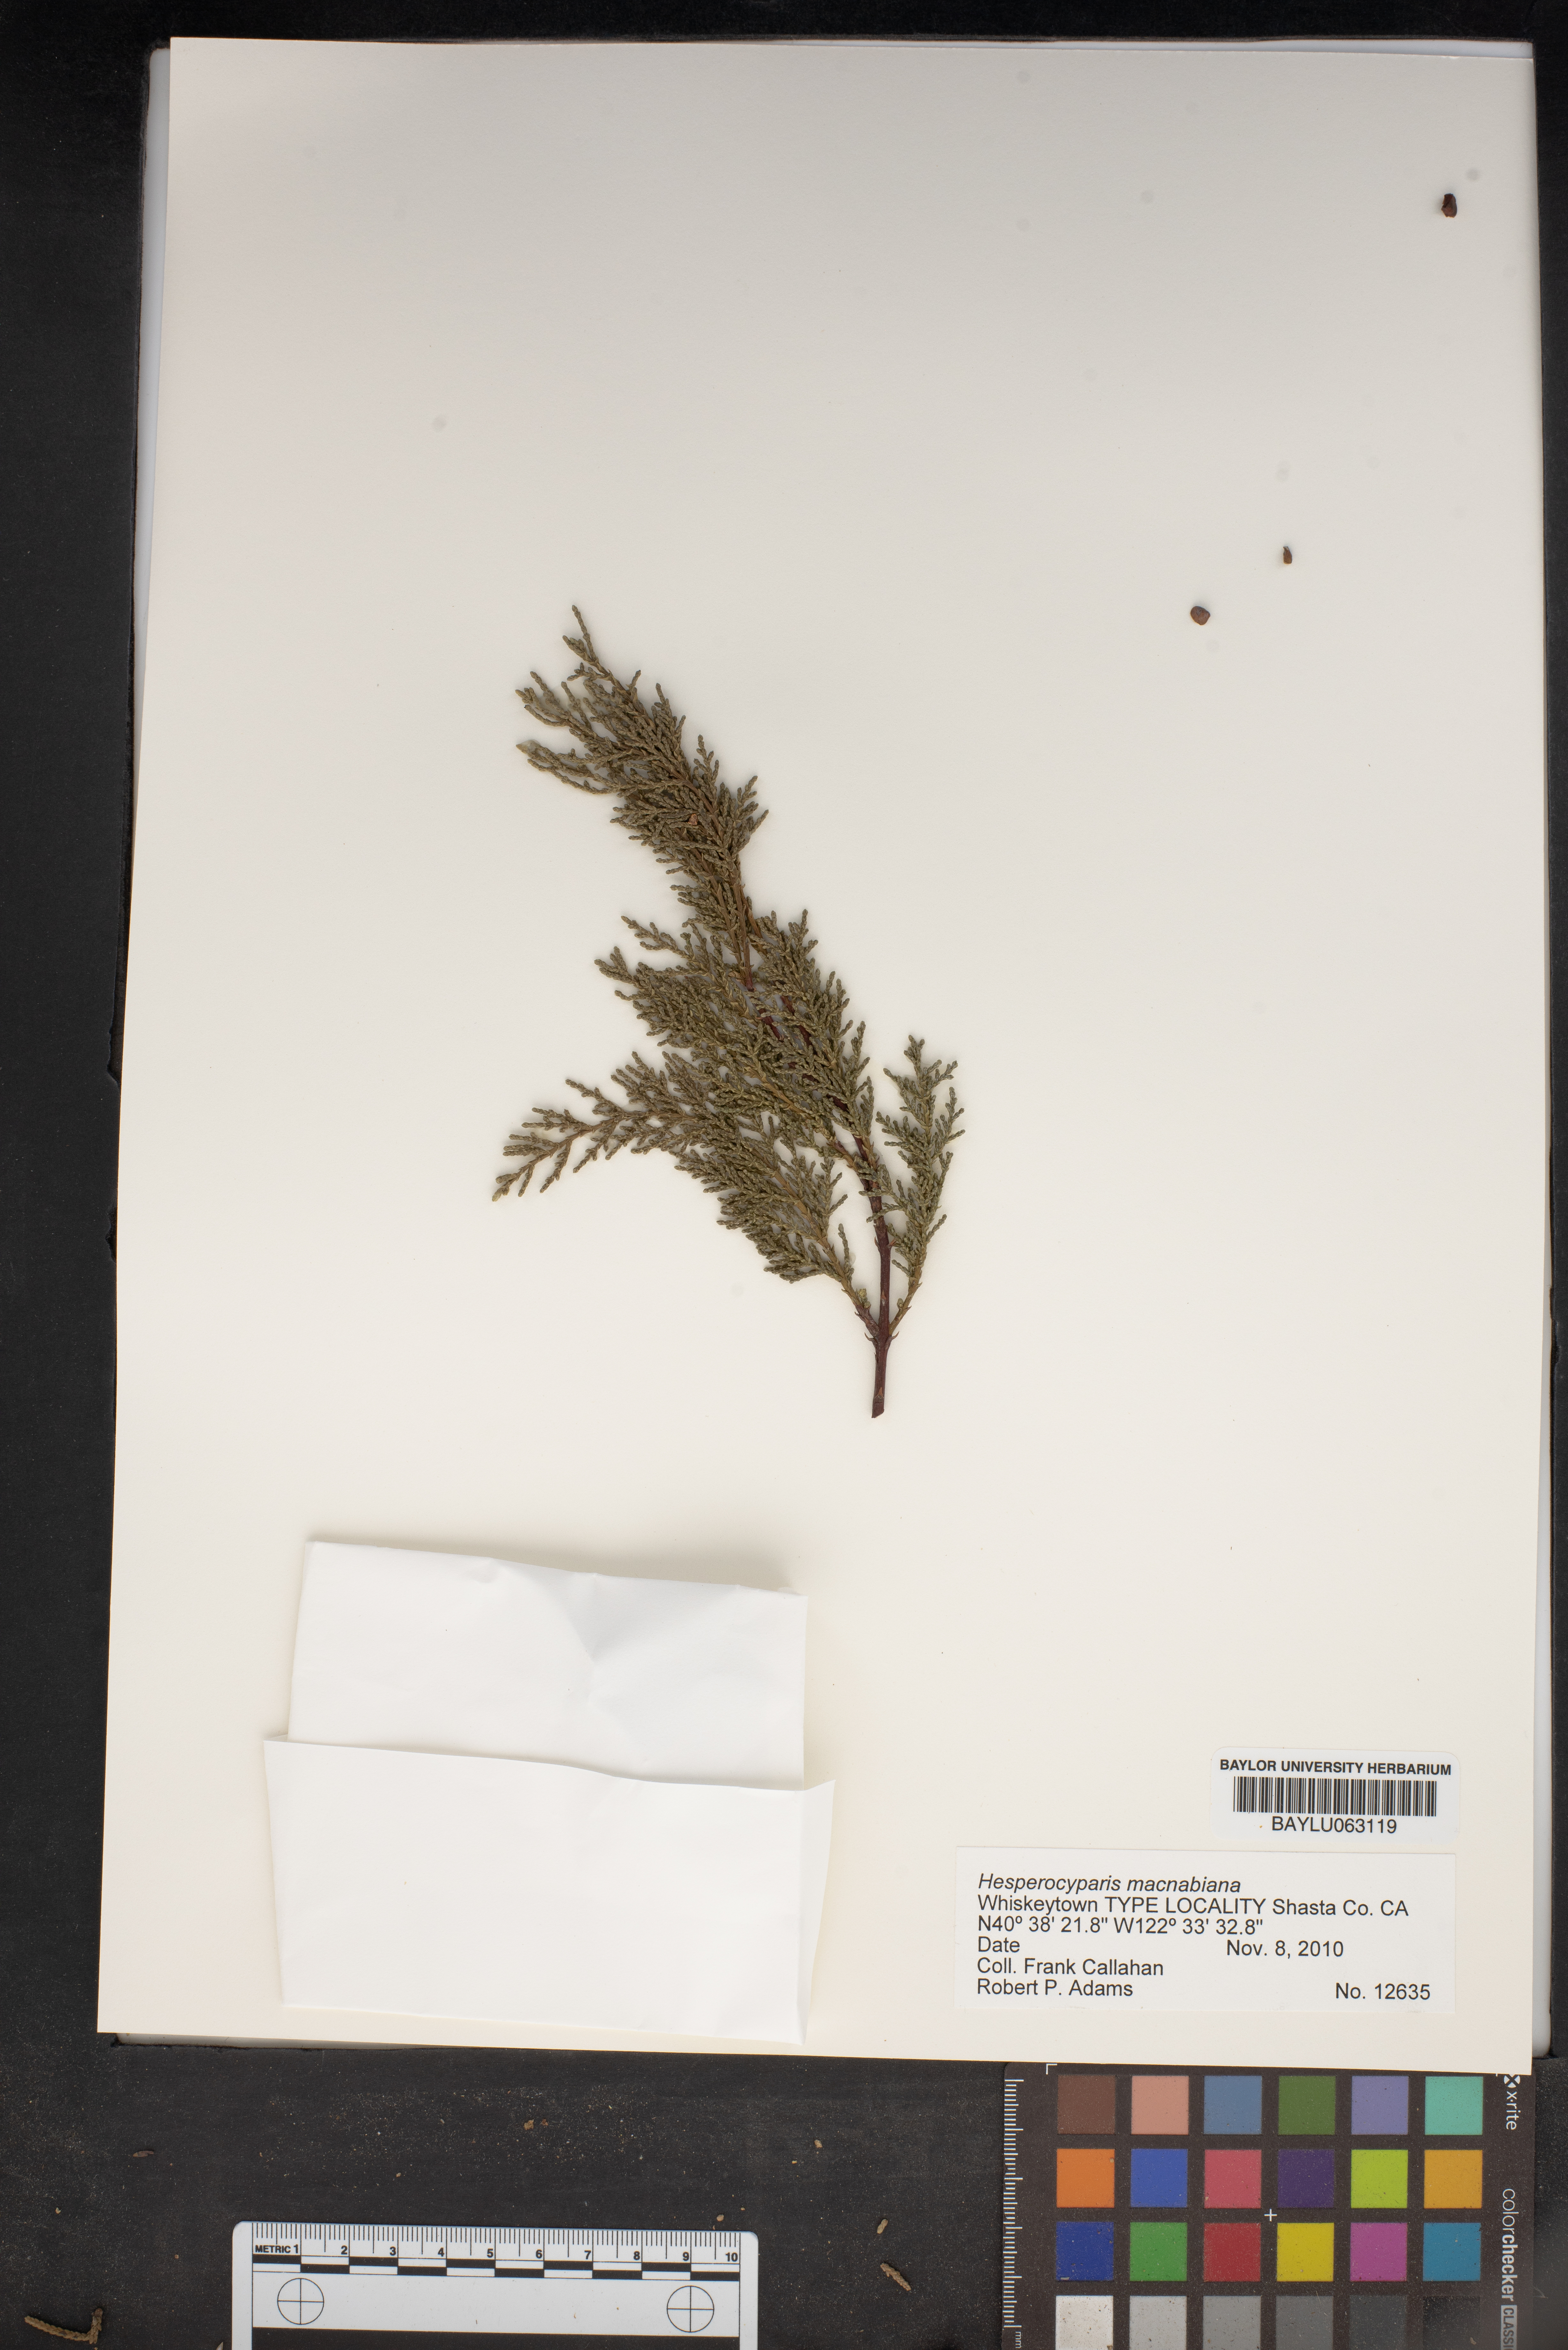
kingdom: Plantae
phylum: Tracheophyta
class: Pinopsida
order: Pinales
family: Cupressaceae
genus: Cupressus
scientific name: Cupressus macnabiana bis
